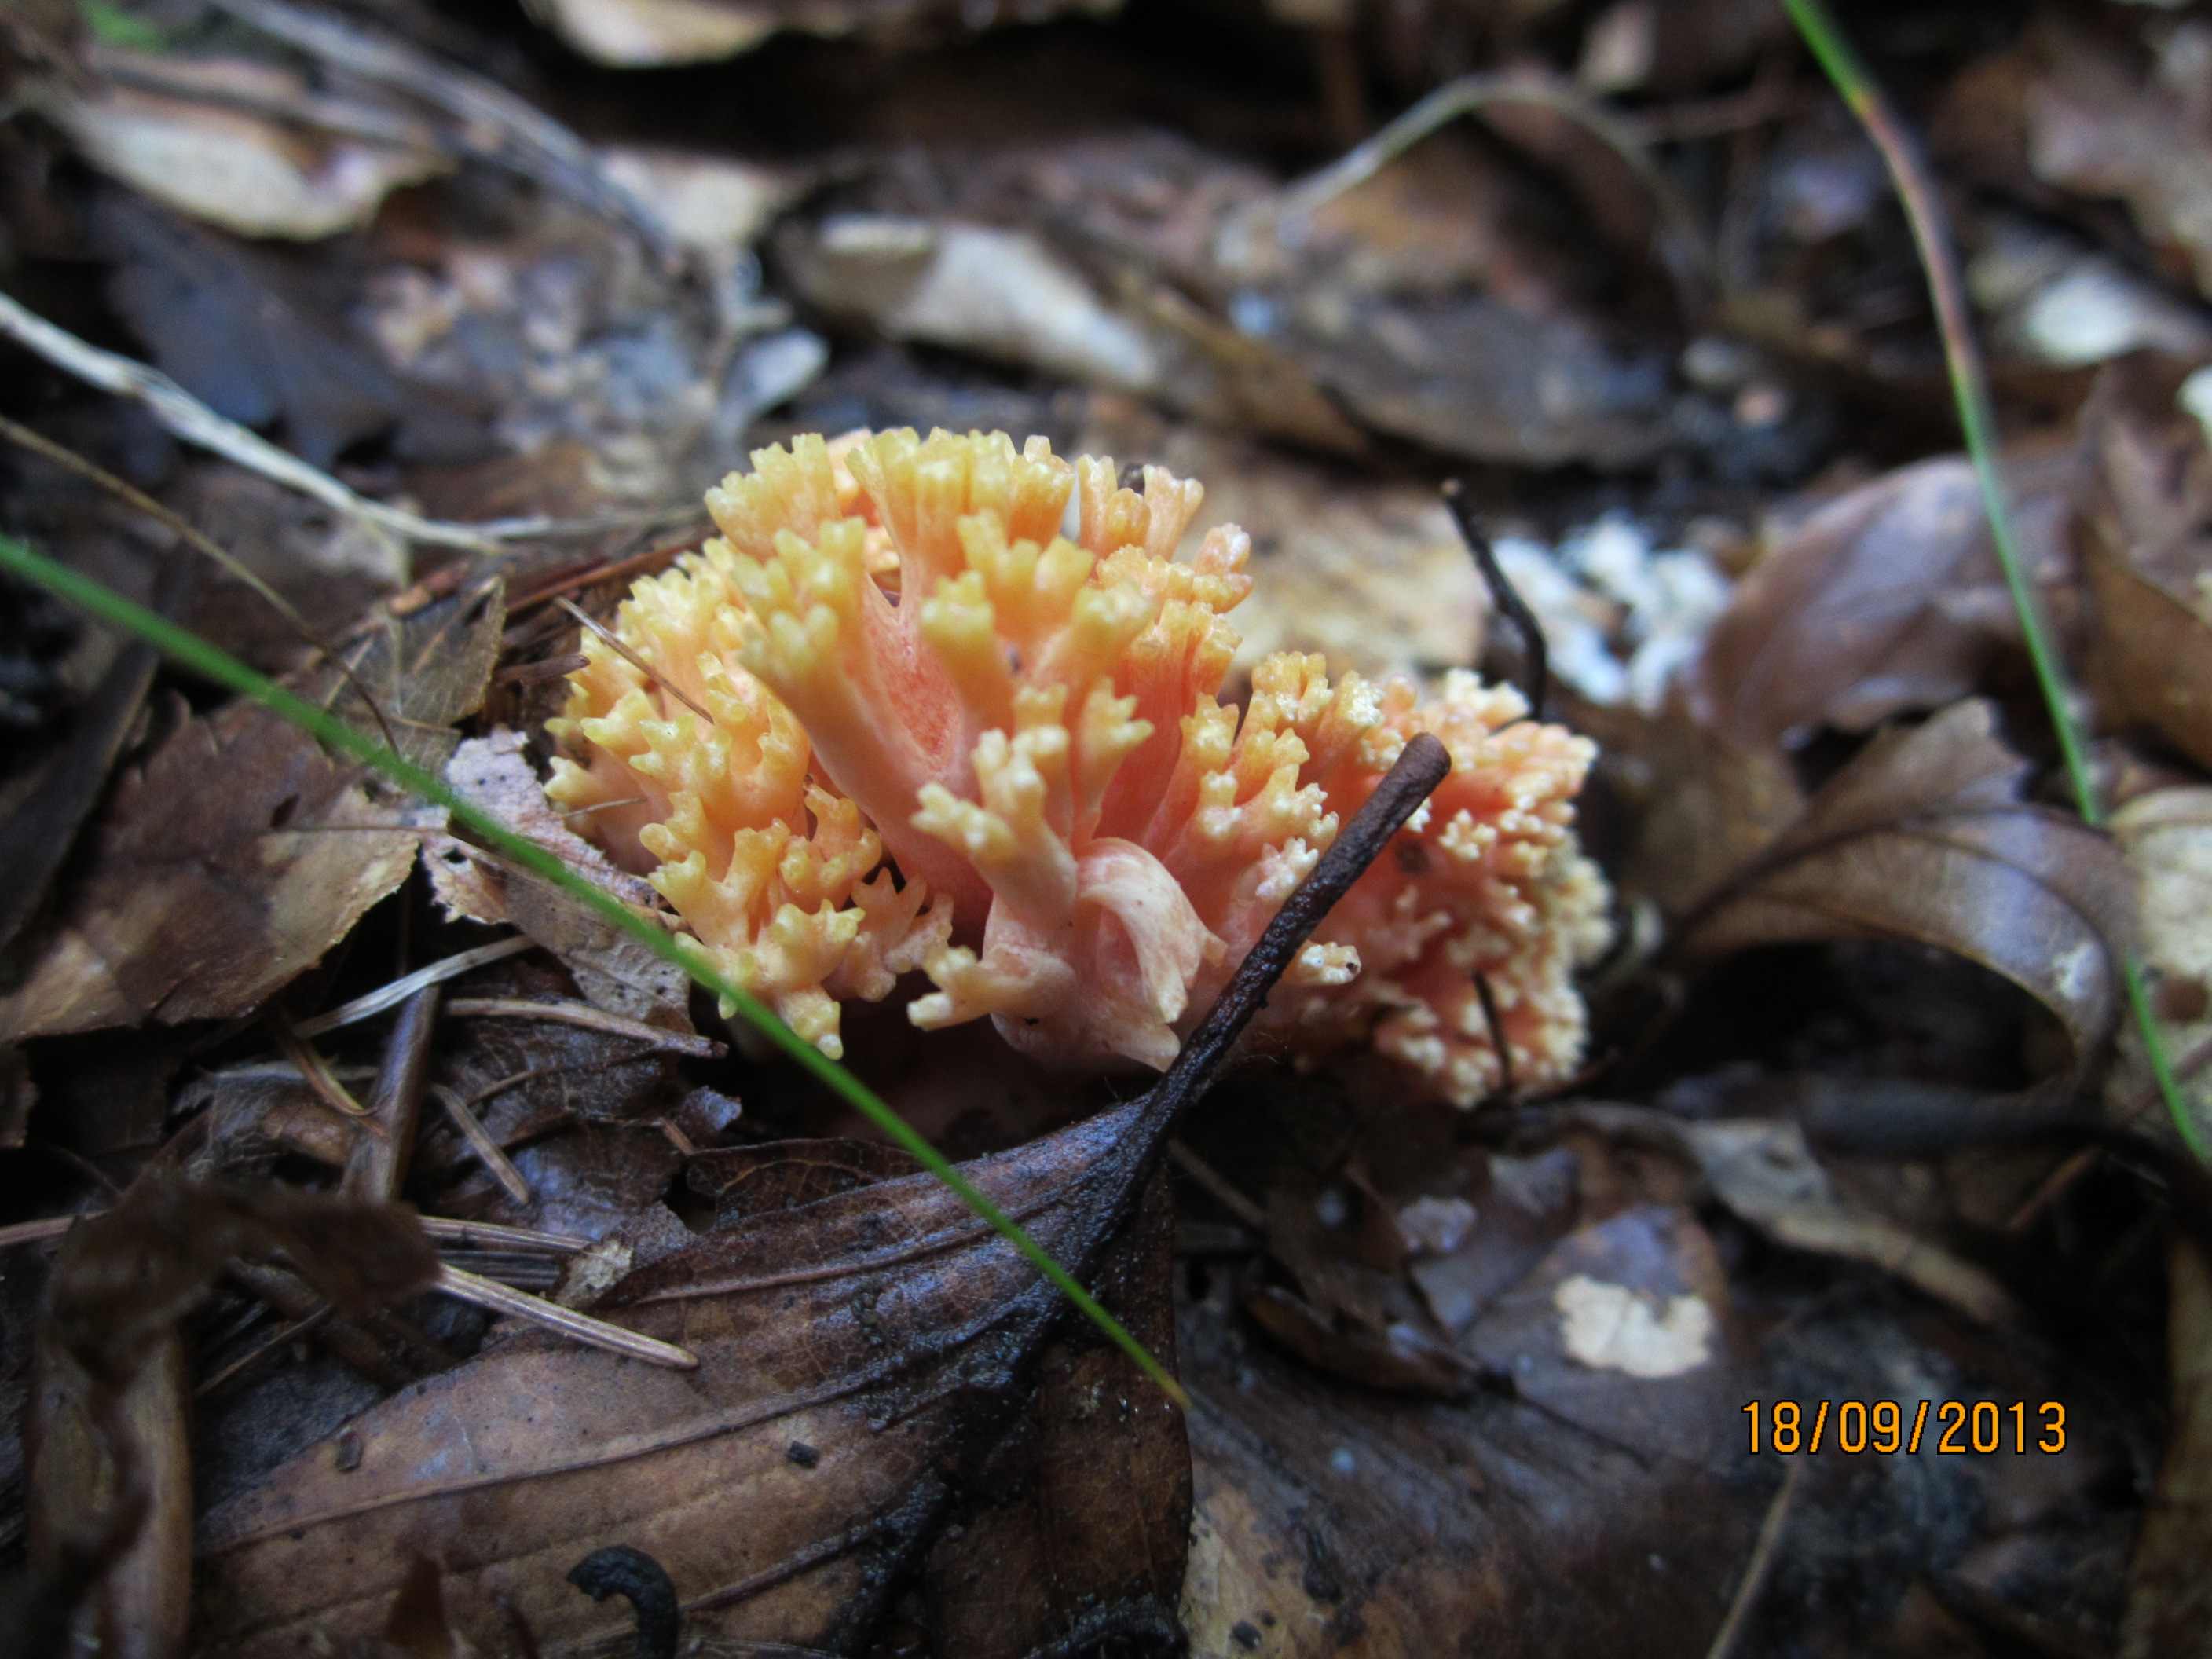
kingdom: Fungi
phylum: Basidiomycota
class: Agaricomycetes
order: Gomphales
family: Gomphaceae
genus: Ramaria
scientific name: Ramaria fagetorum
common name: abrikos-koralsvamp
